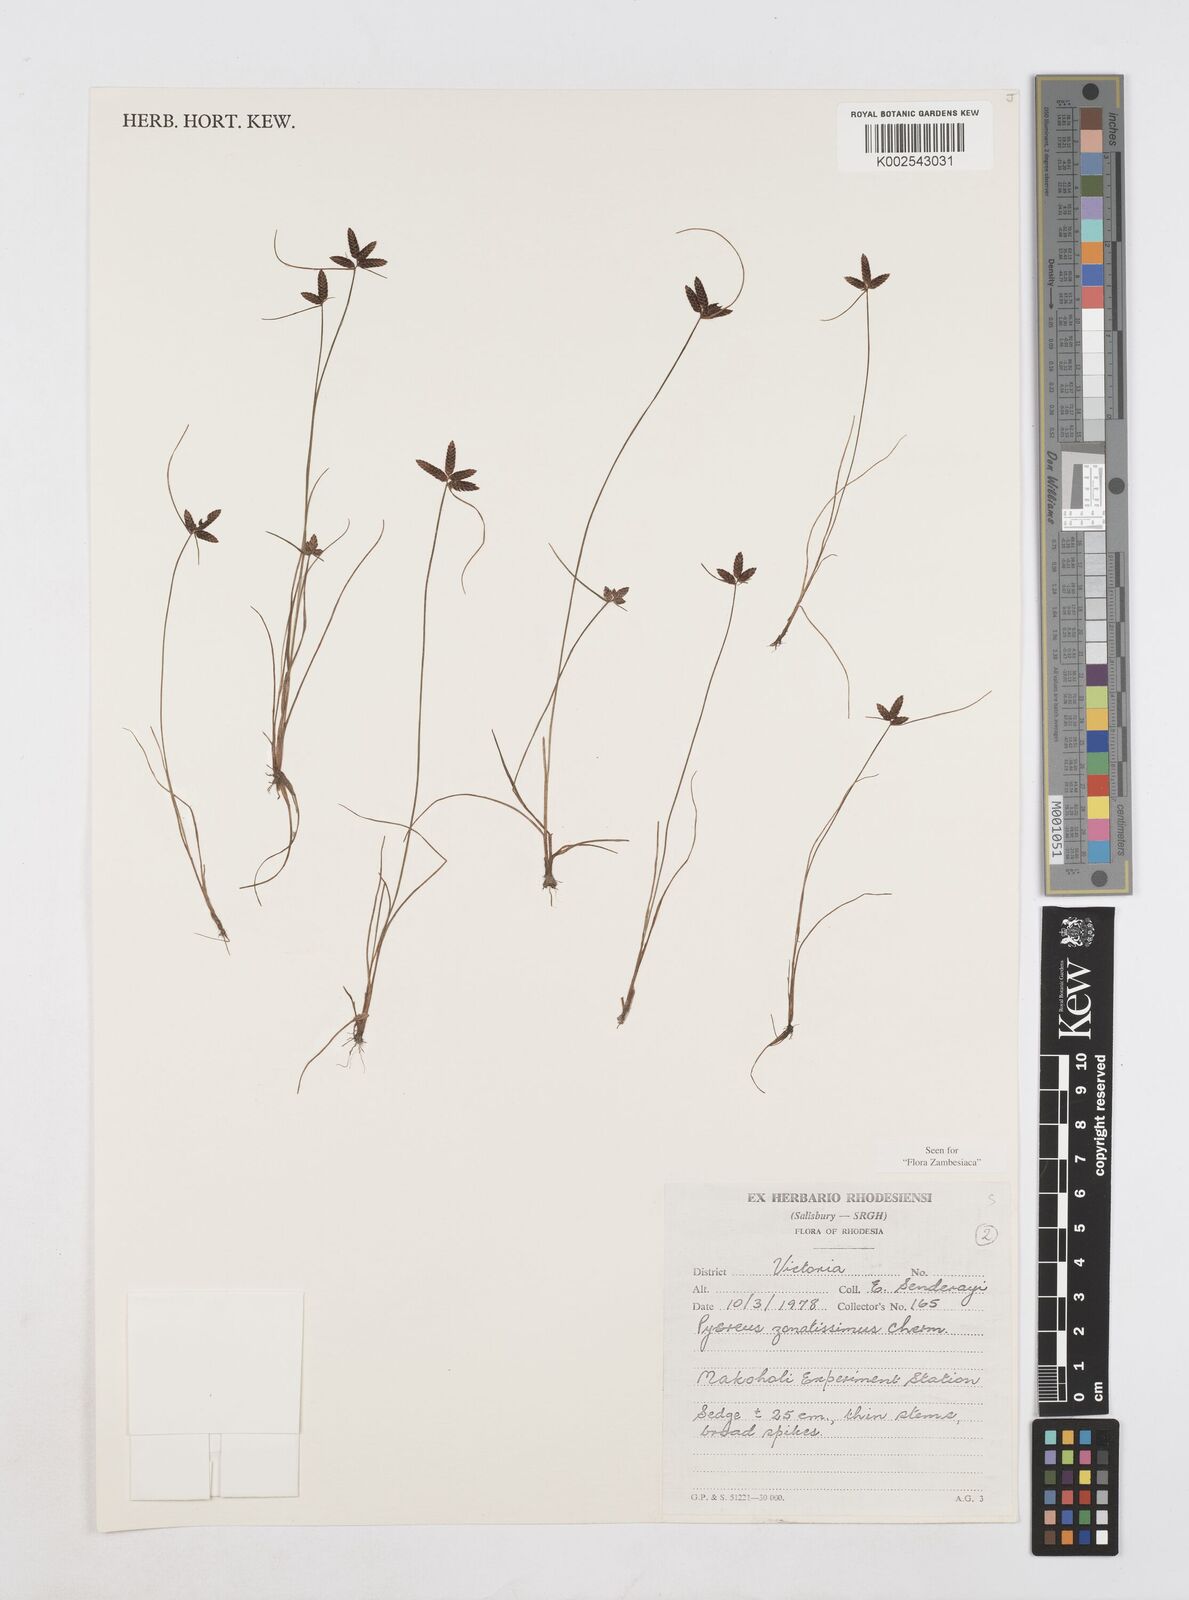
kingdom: Plantae
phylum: Tracheophyta
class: Liliopsida
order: Poales
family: Cyperaceae
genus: Cyperus
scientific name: Cyperus zonatissimus
